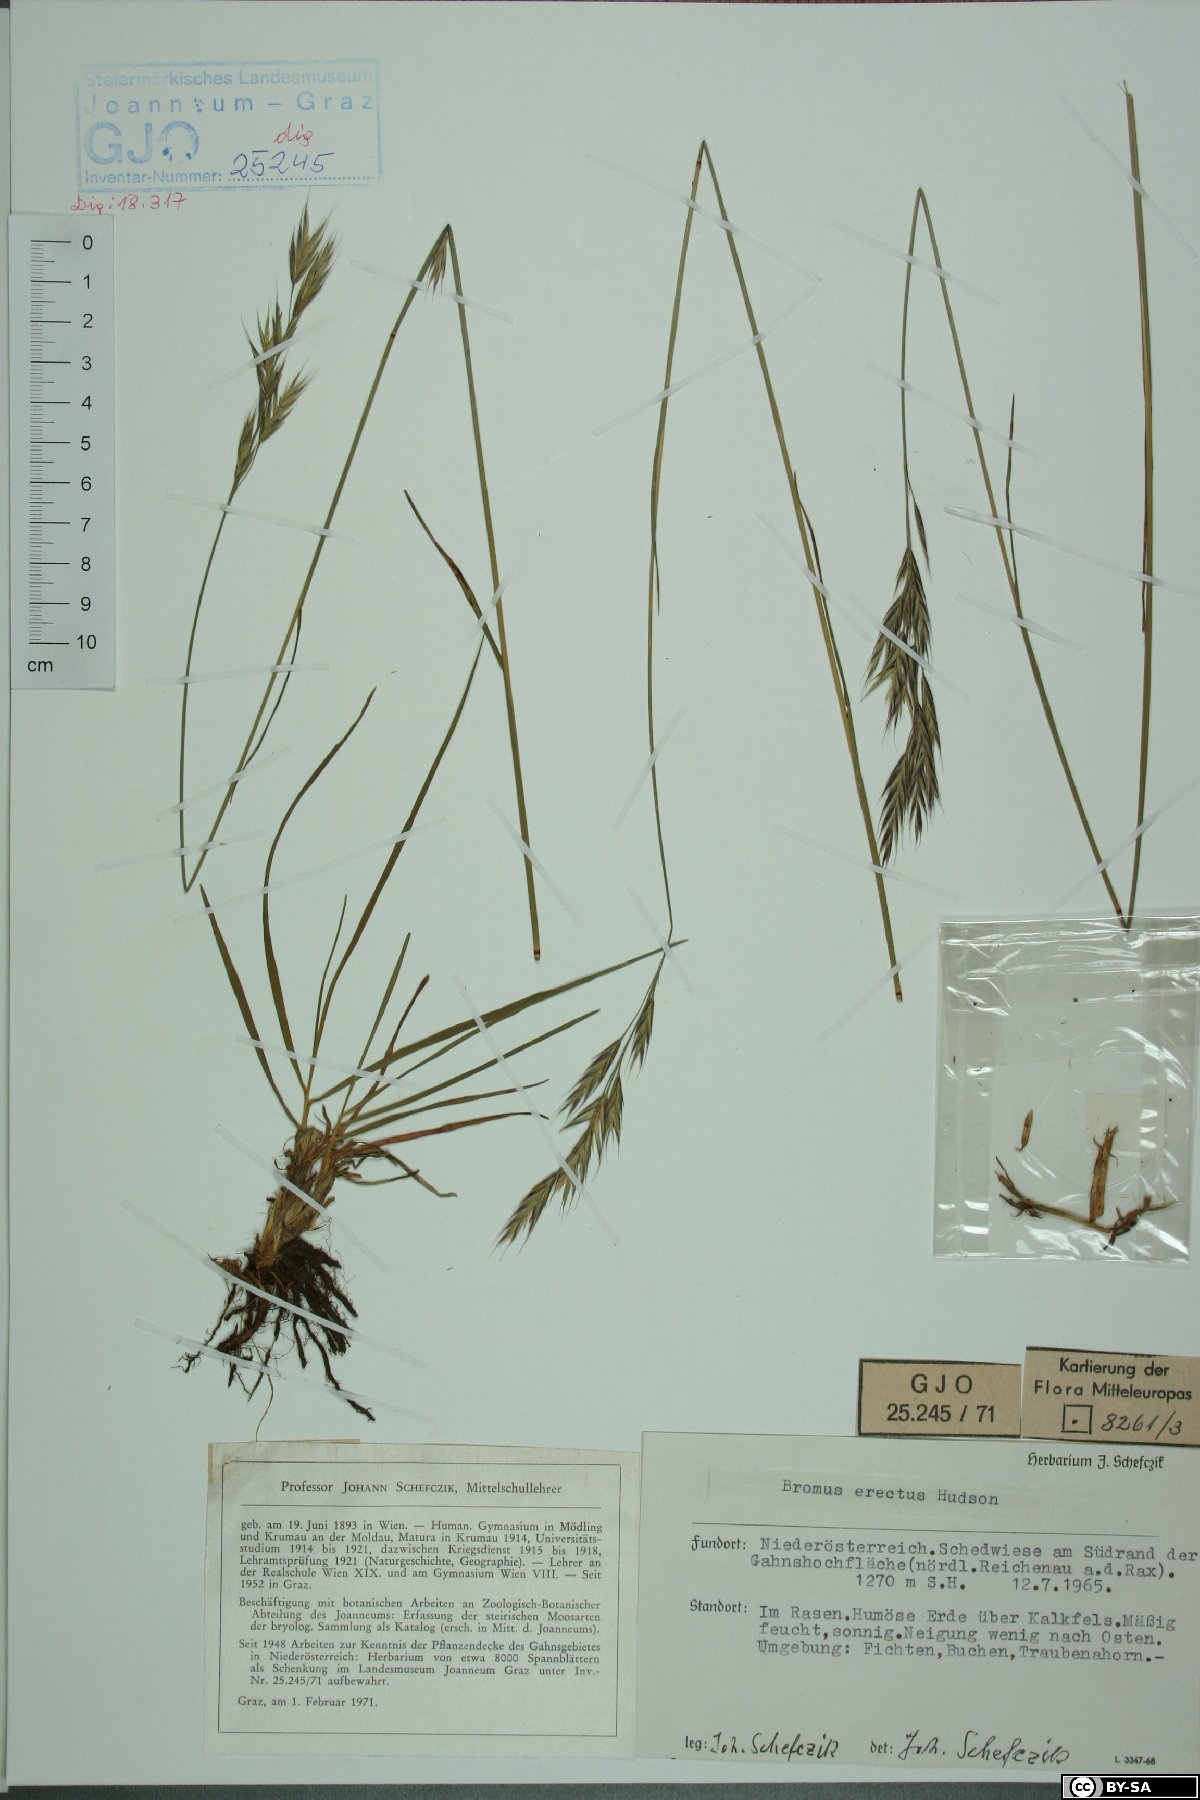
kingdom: Plantae
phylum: Tracheophyta
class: Liliopsida
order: Poales
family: Poaceae
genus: Bromus
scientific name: Bromus erectus
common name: Erect brome
